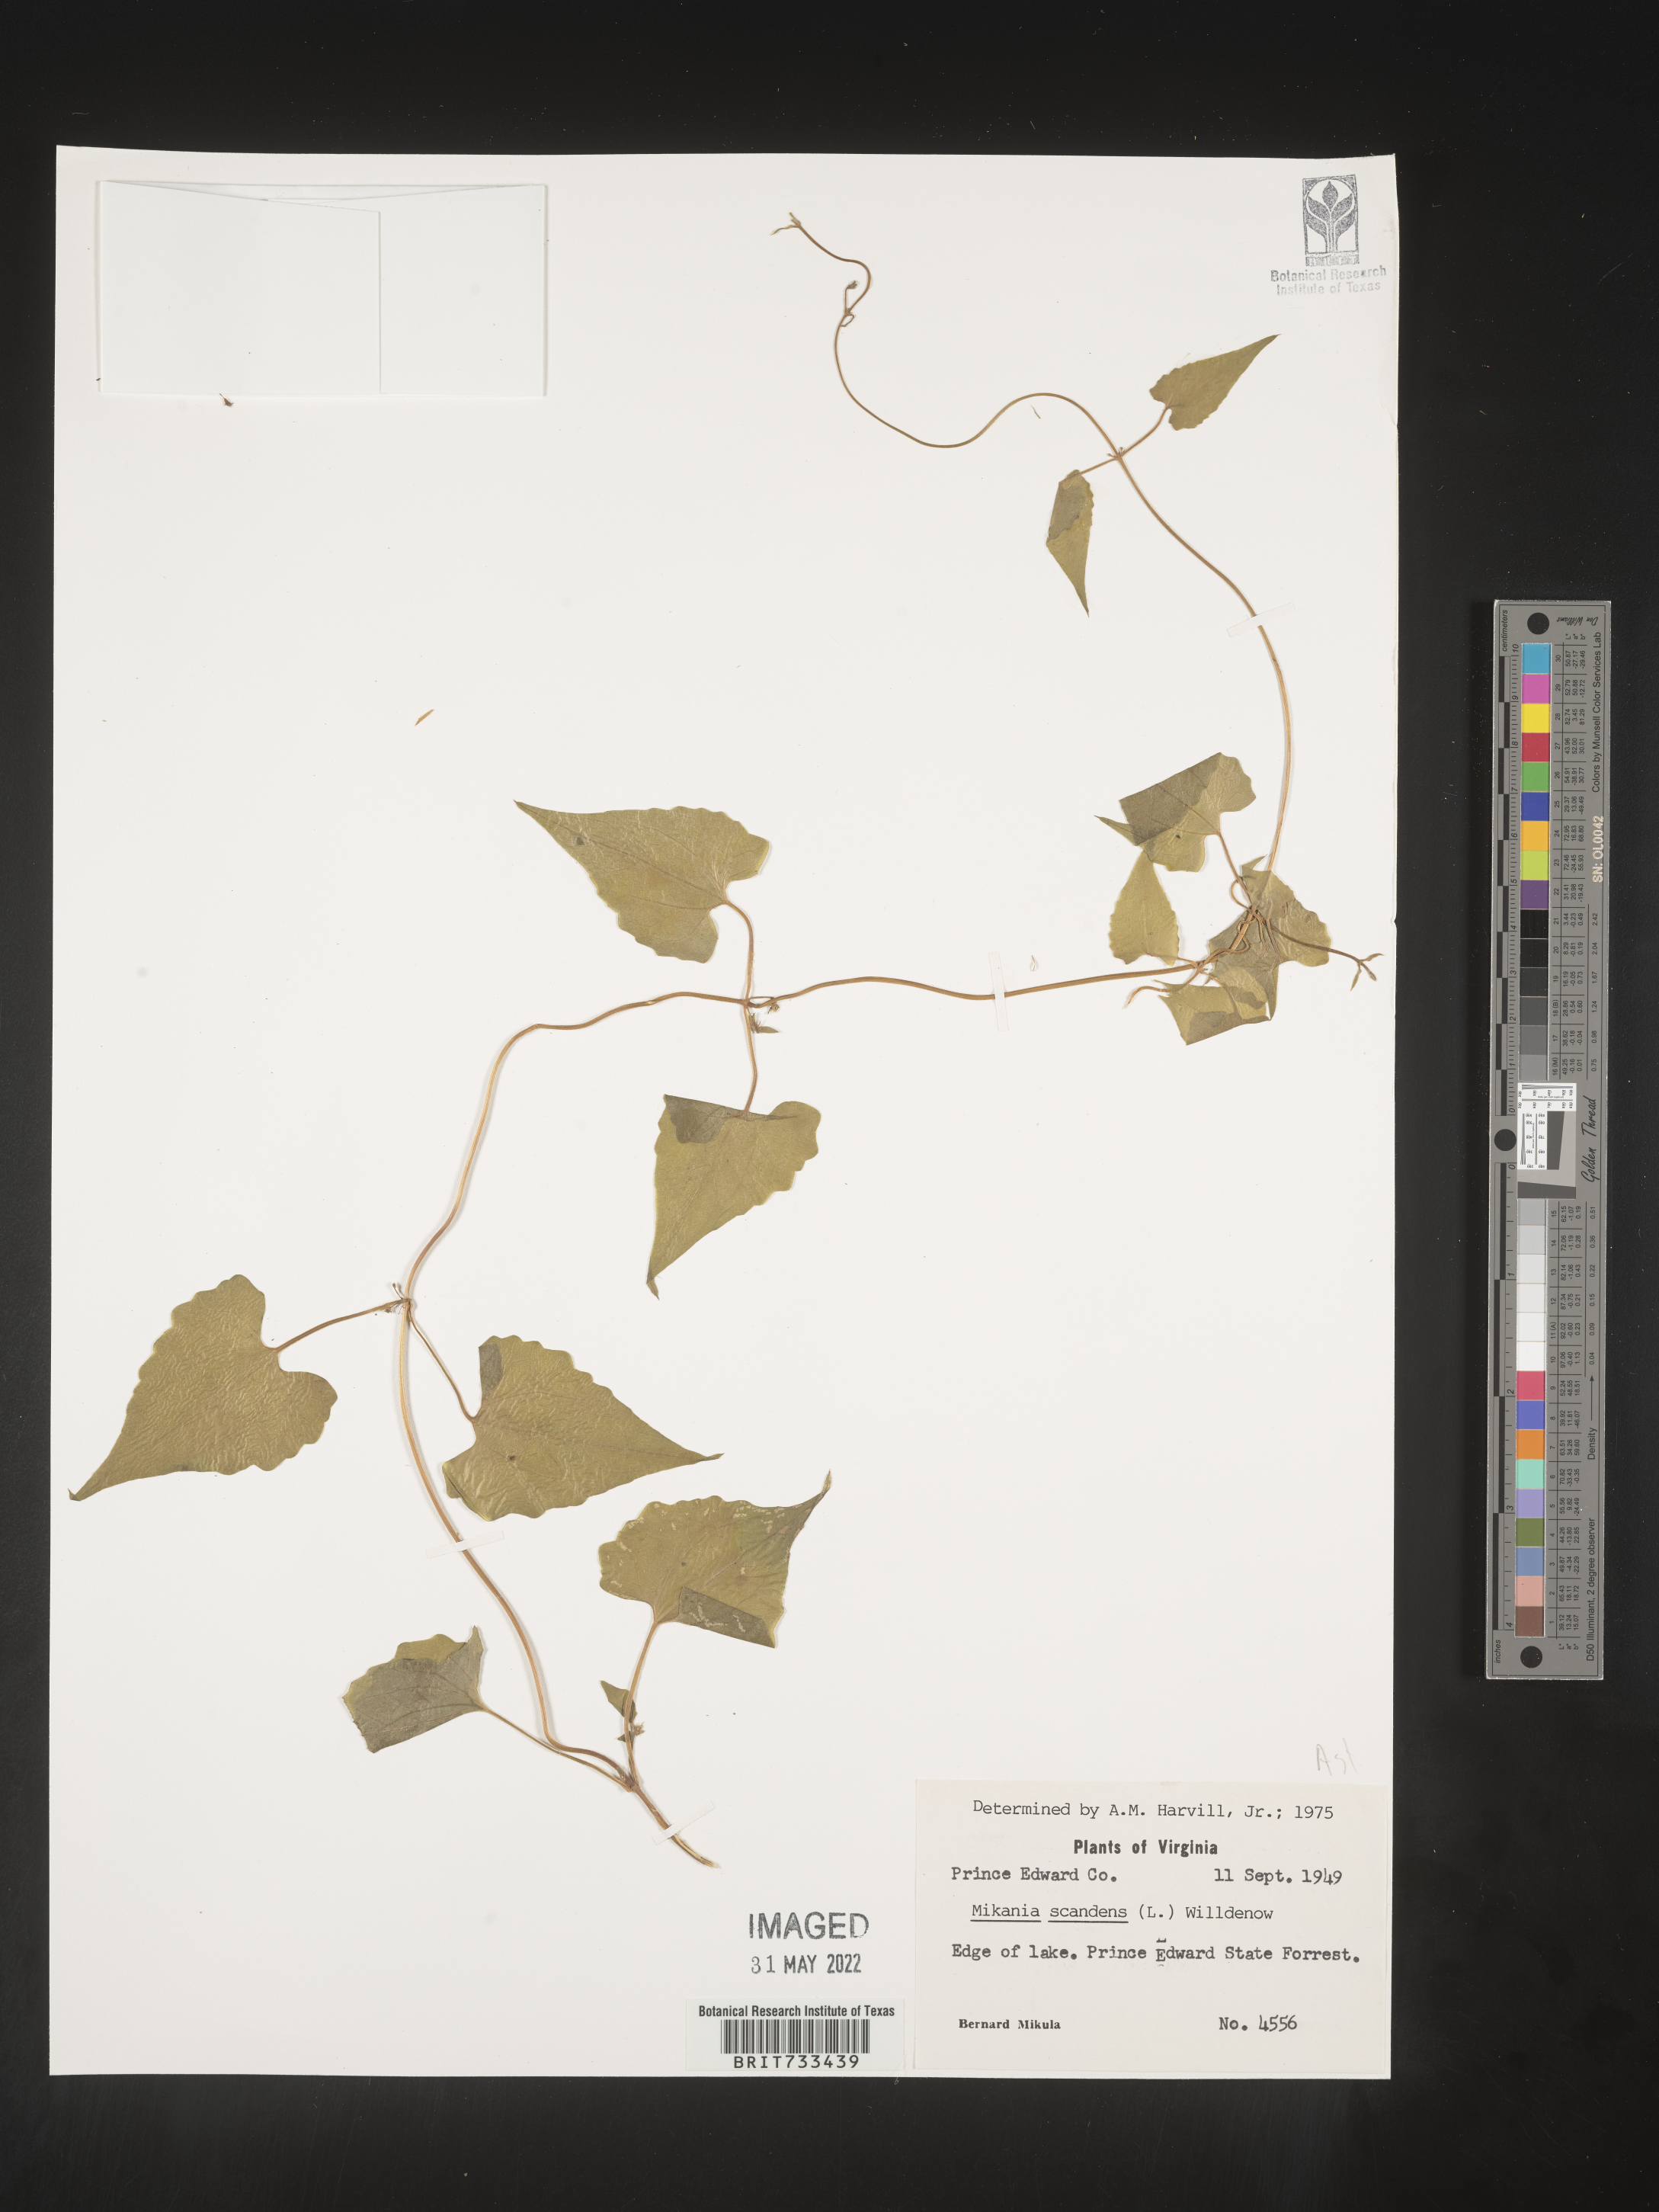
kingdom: Plantae
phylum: Tracheophyta
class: Magnoliopsida
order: Asterales
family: Asteraceae
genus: Mikania
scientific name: Mikania scandens
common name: Climbing hempvine
